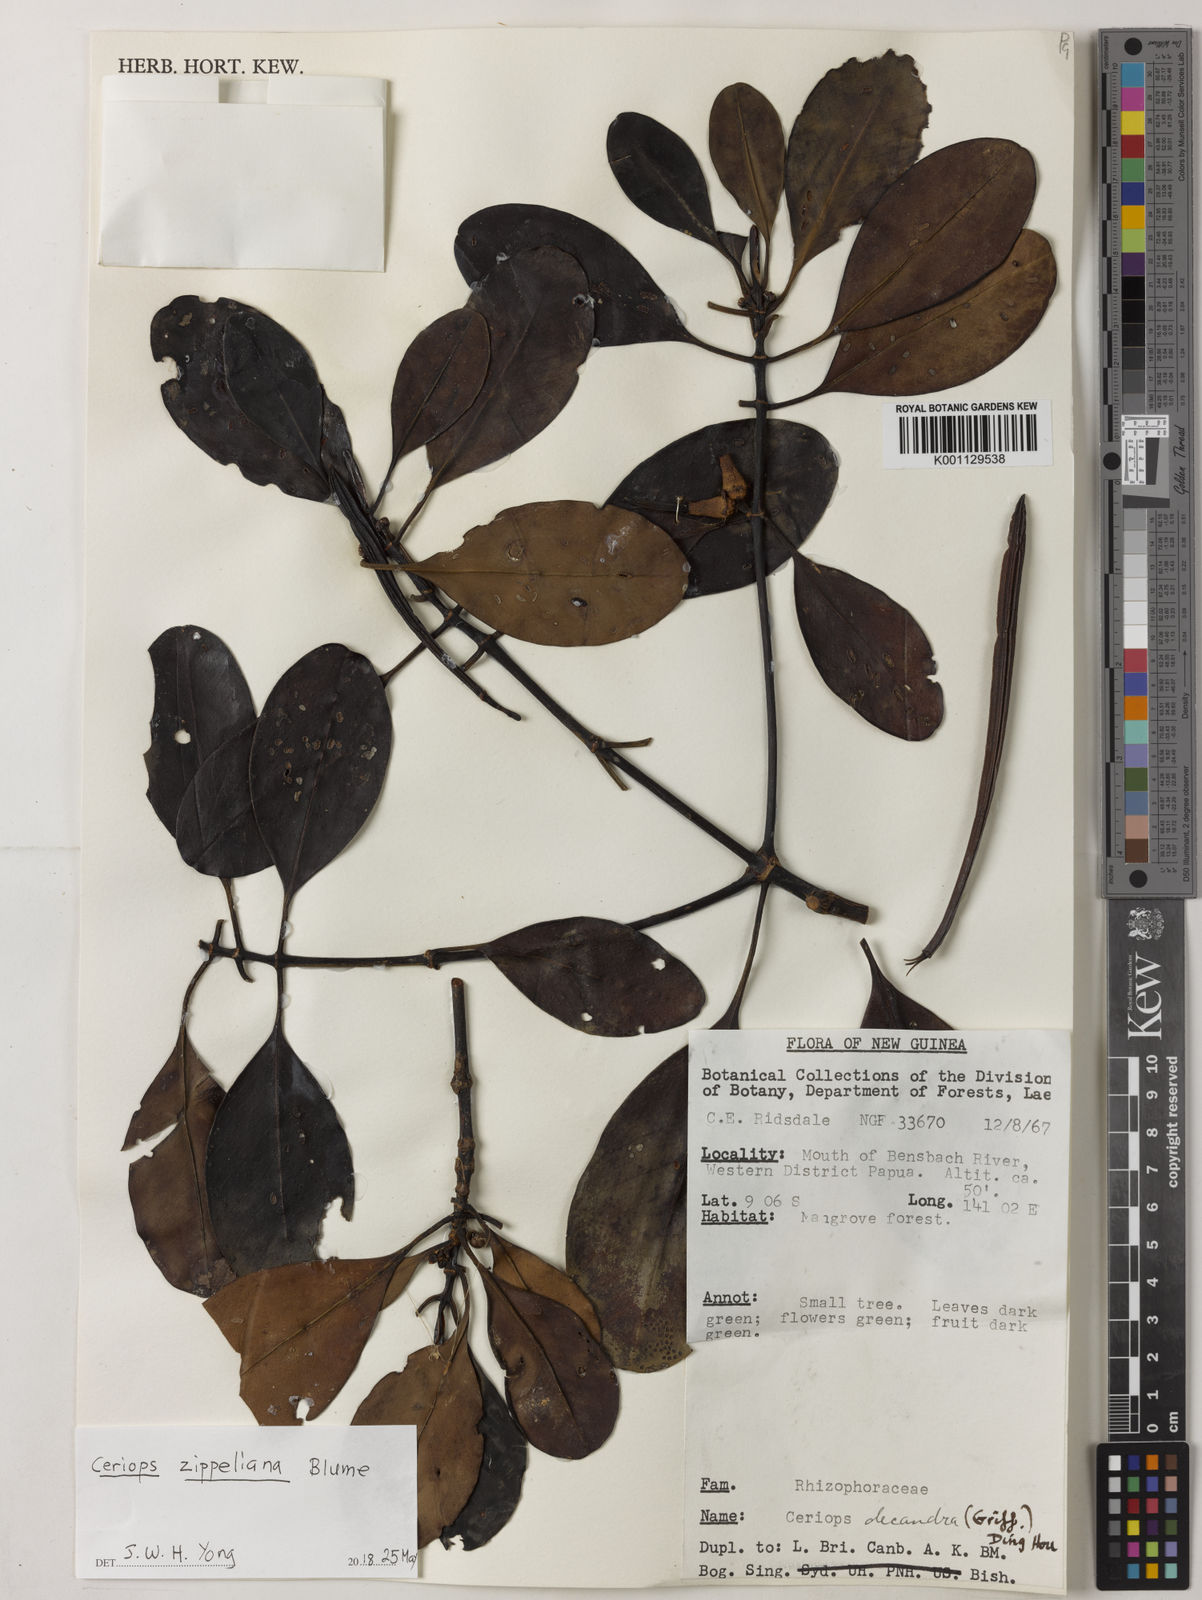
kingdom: Plantae
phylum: Tracheophyta
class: Magnoliopsida
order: Malpighiales
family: Rhizophoraceae
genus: Ceriops
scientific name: Ceriops zippeliana
